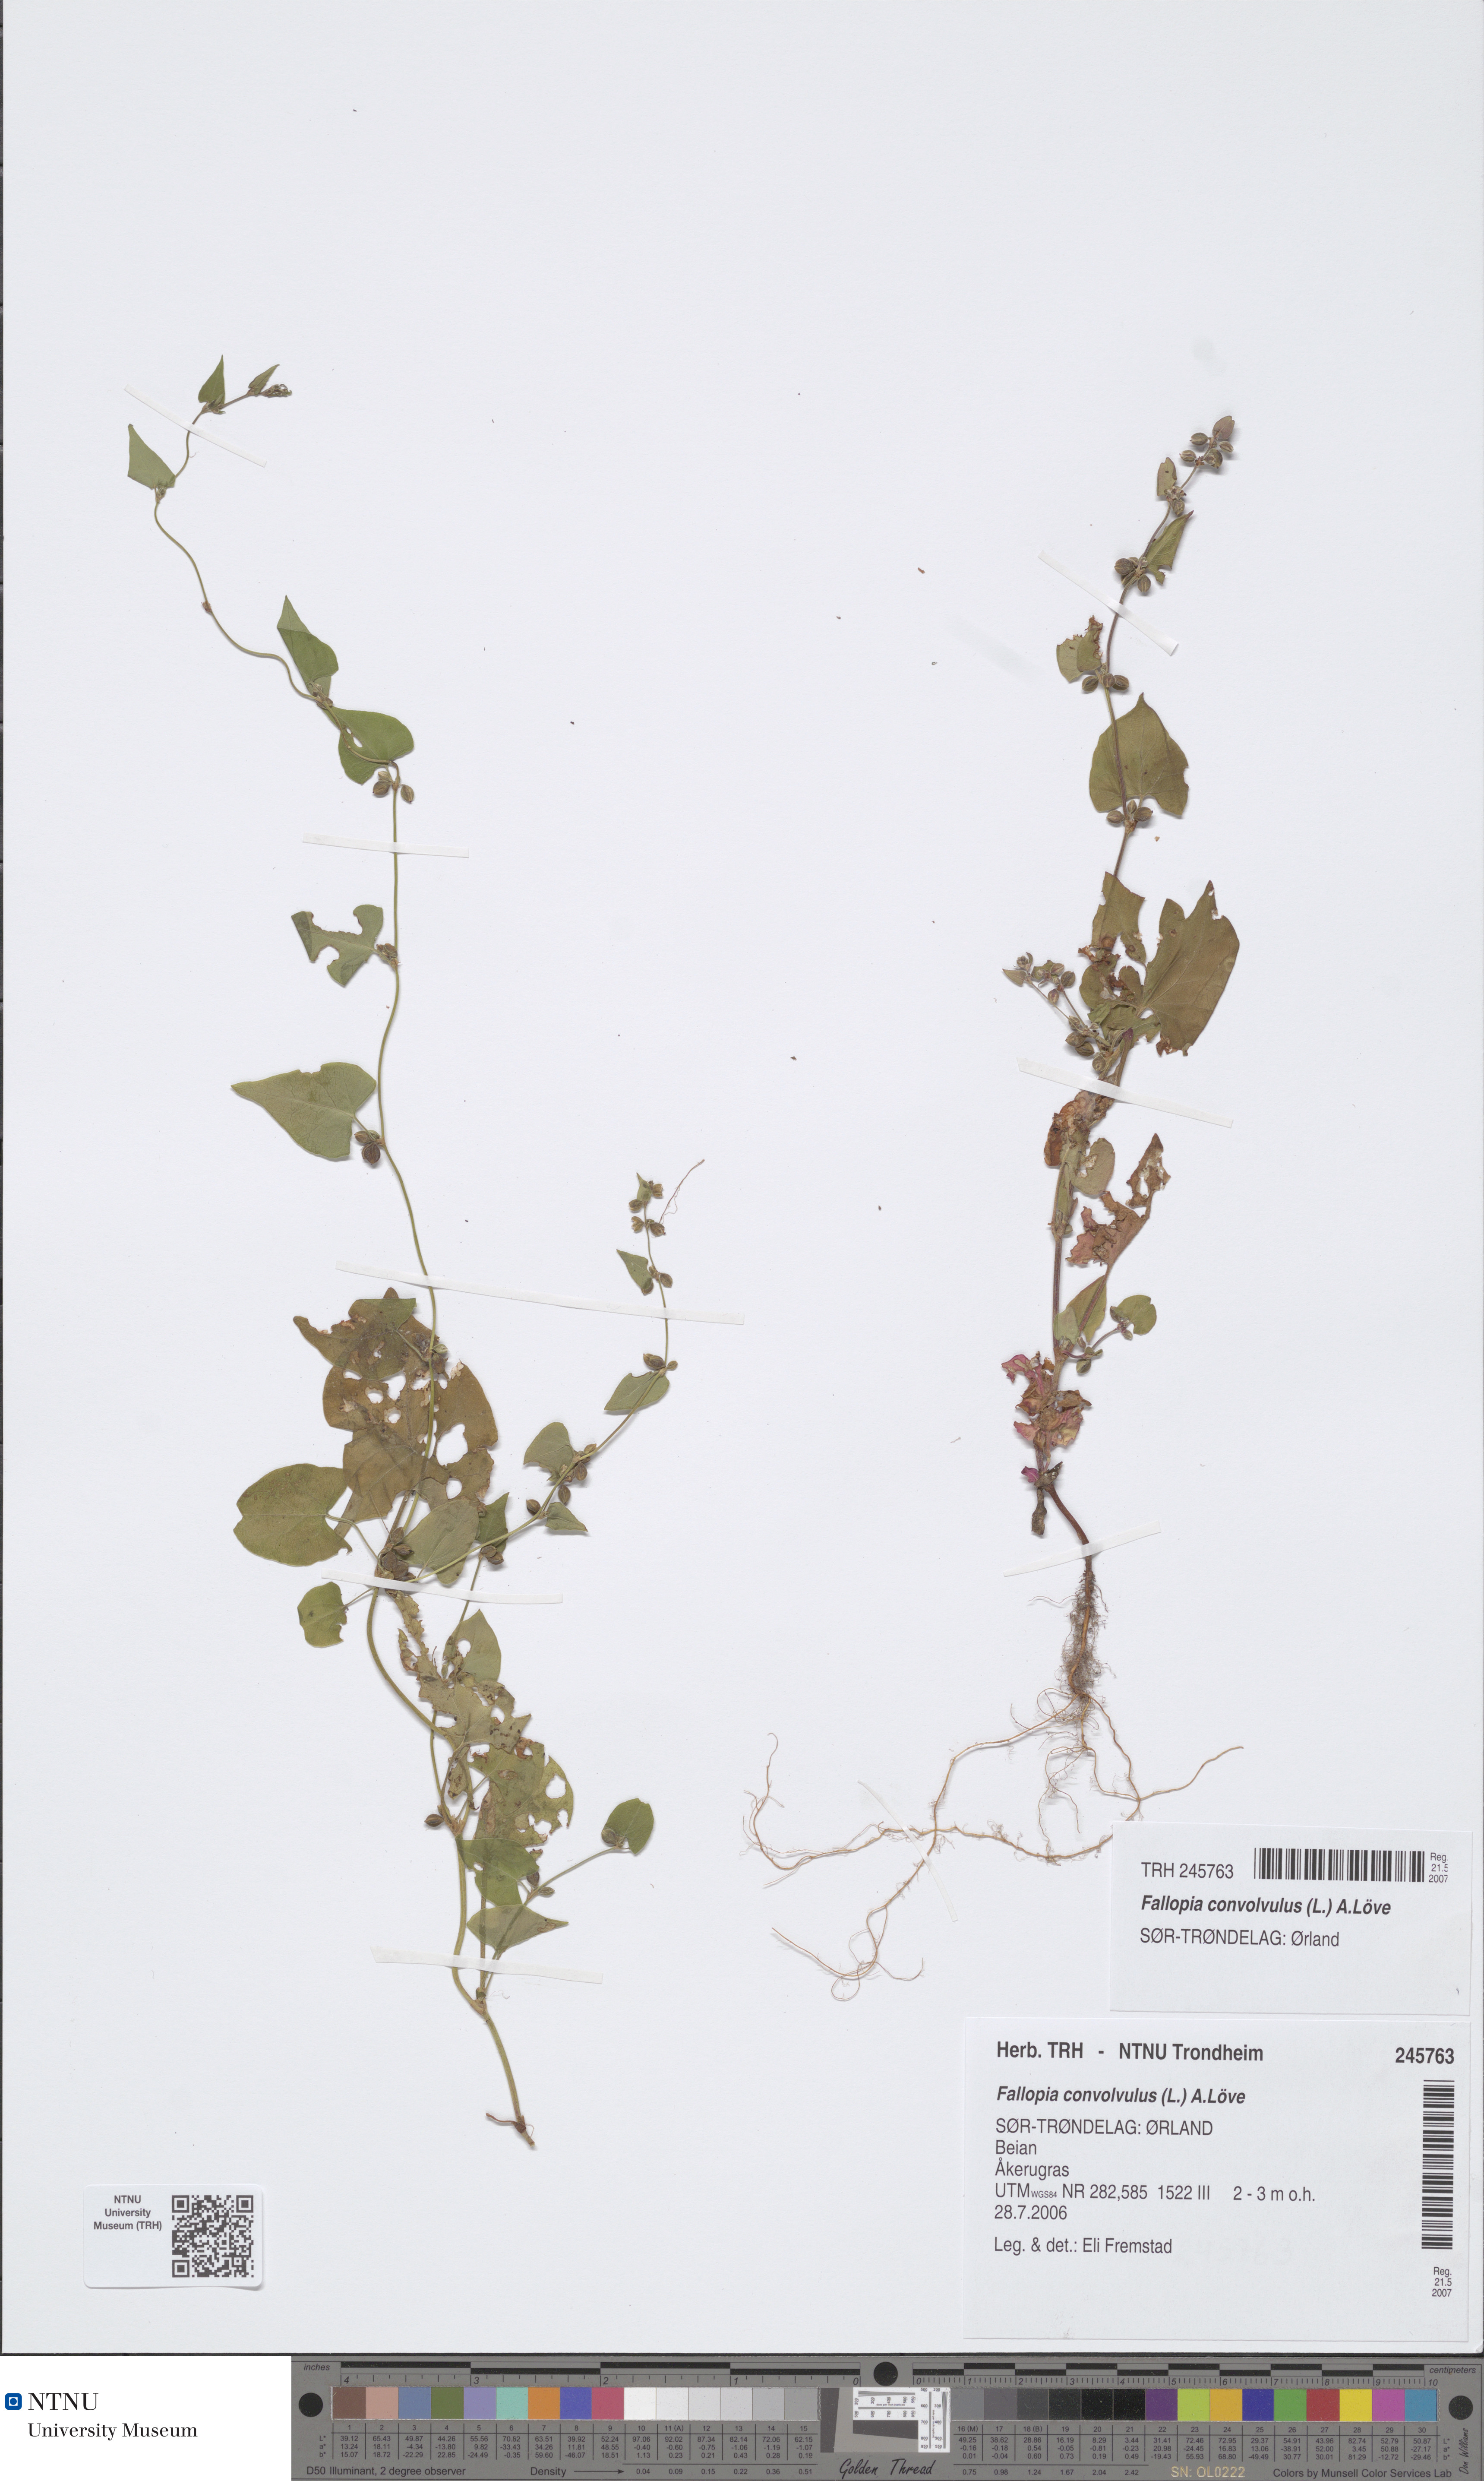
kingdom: Plantae
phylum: Tracheophyta
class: Magnoliopsida
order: Caryophyllales
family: Polygonaceae
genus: Fallopia
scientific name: Fallopia convolvulus
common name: Black bindweed
